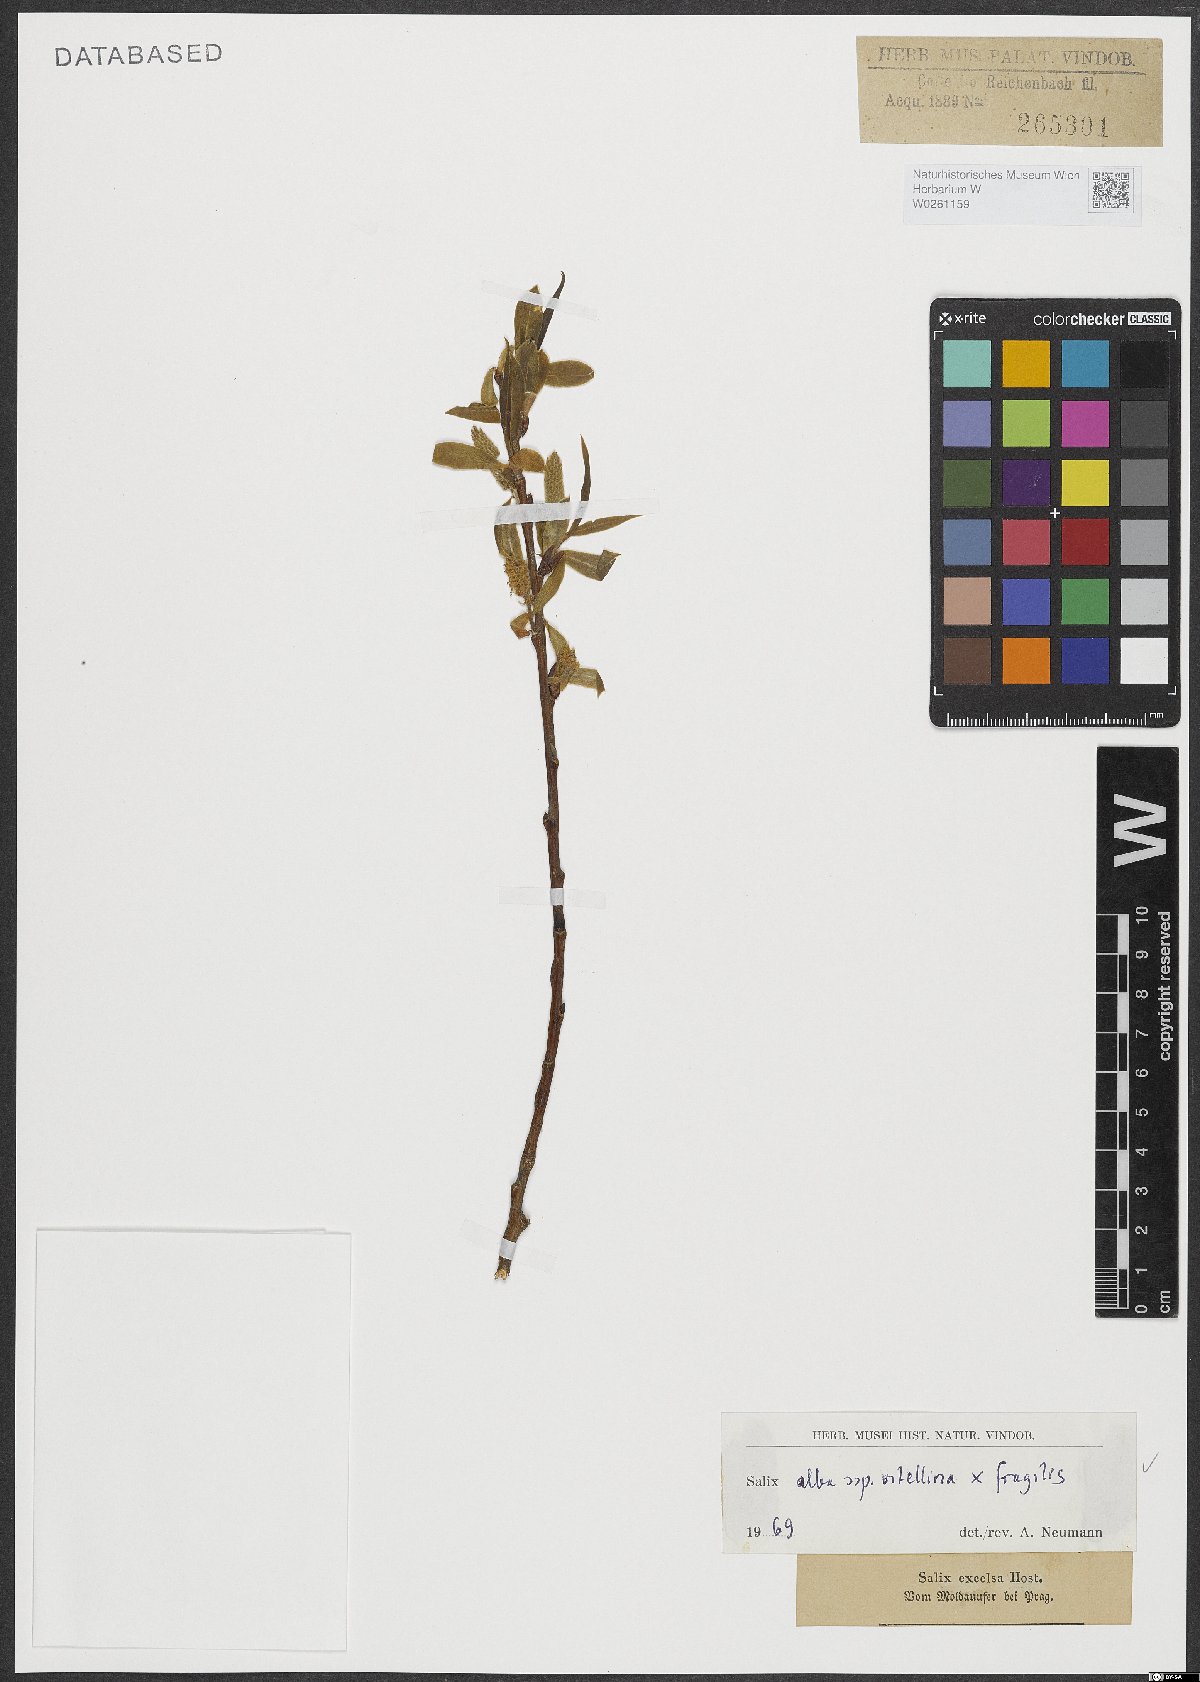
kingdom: Plantae
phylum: Tracheophyta
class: Magnoliopsida
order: Malpighiales
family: Salicaceae
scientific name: Salicaceae
